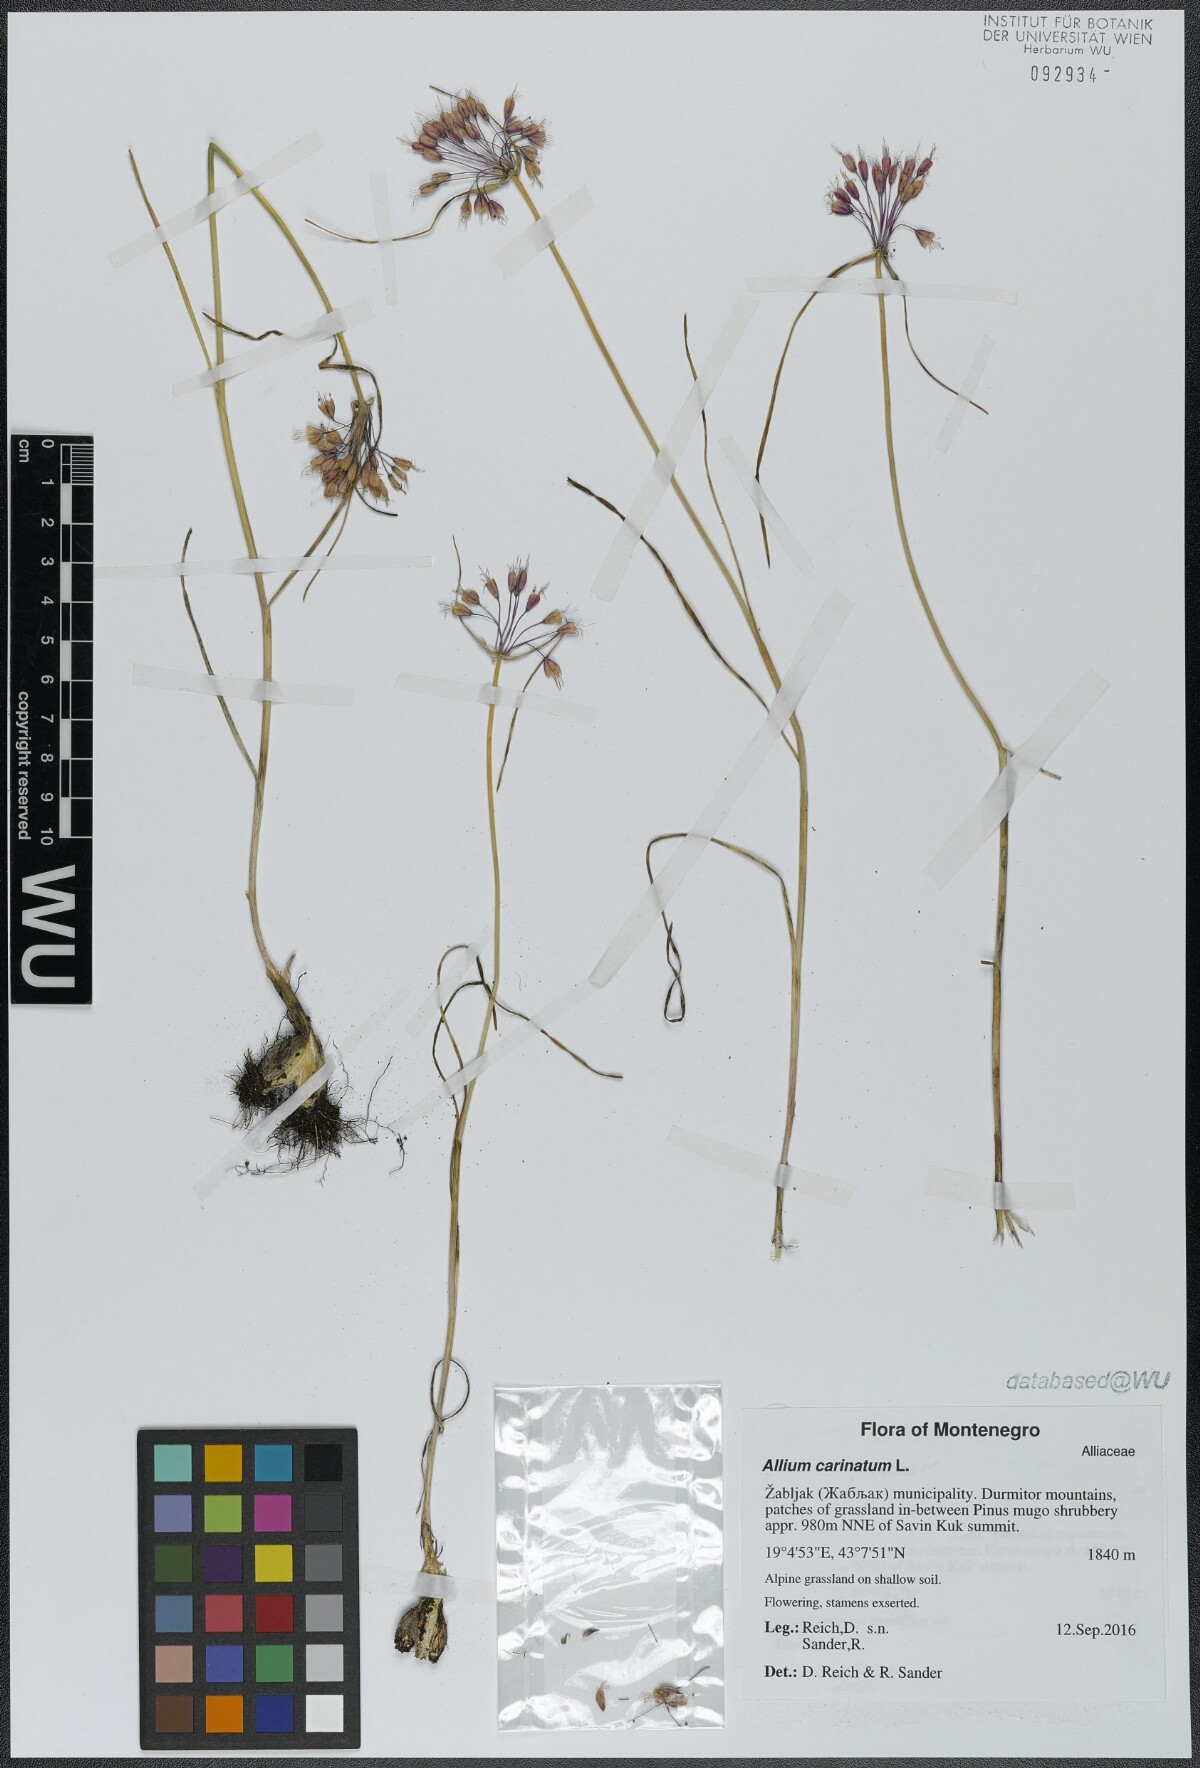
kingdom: Plantae
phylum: Tracheophyta
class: Liliopsida
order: Asparagales
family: Amaryllidaceae
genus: Allium
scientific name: Allium carinatum
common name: Keeled garlic
